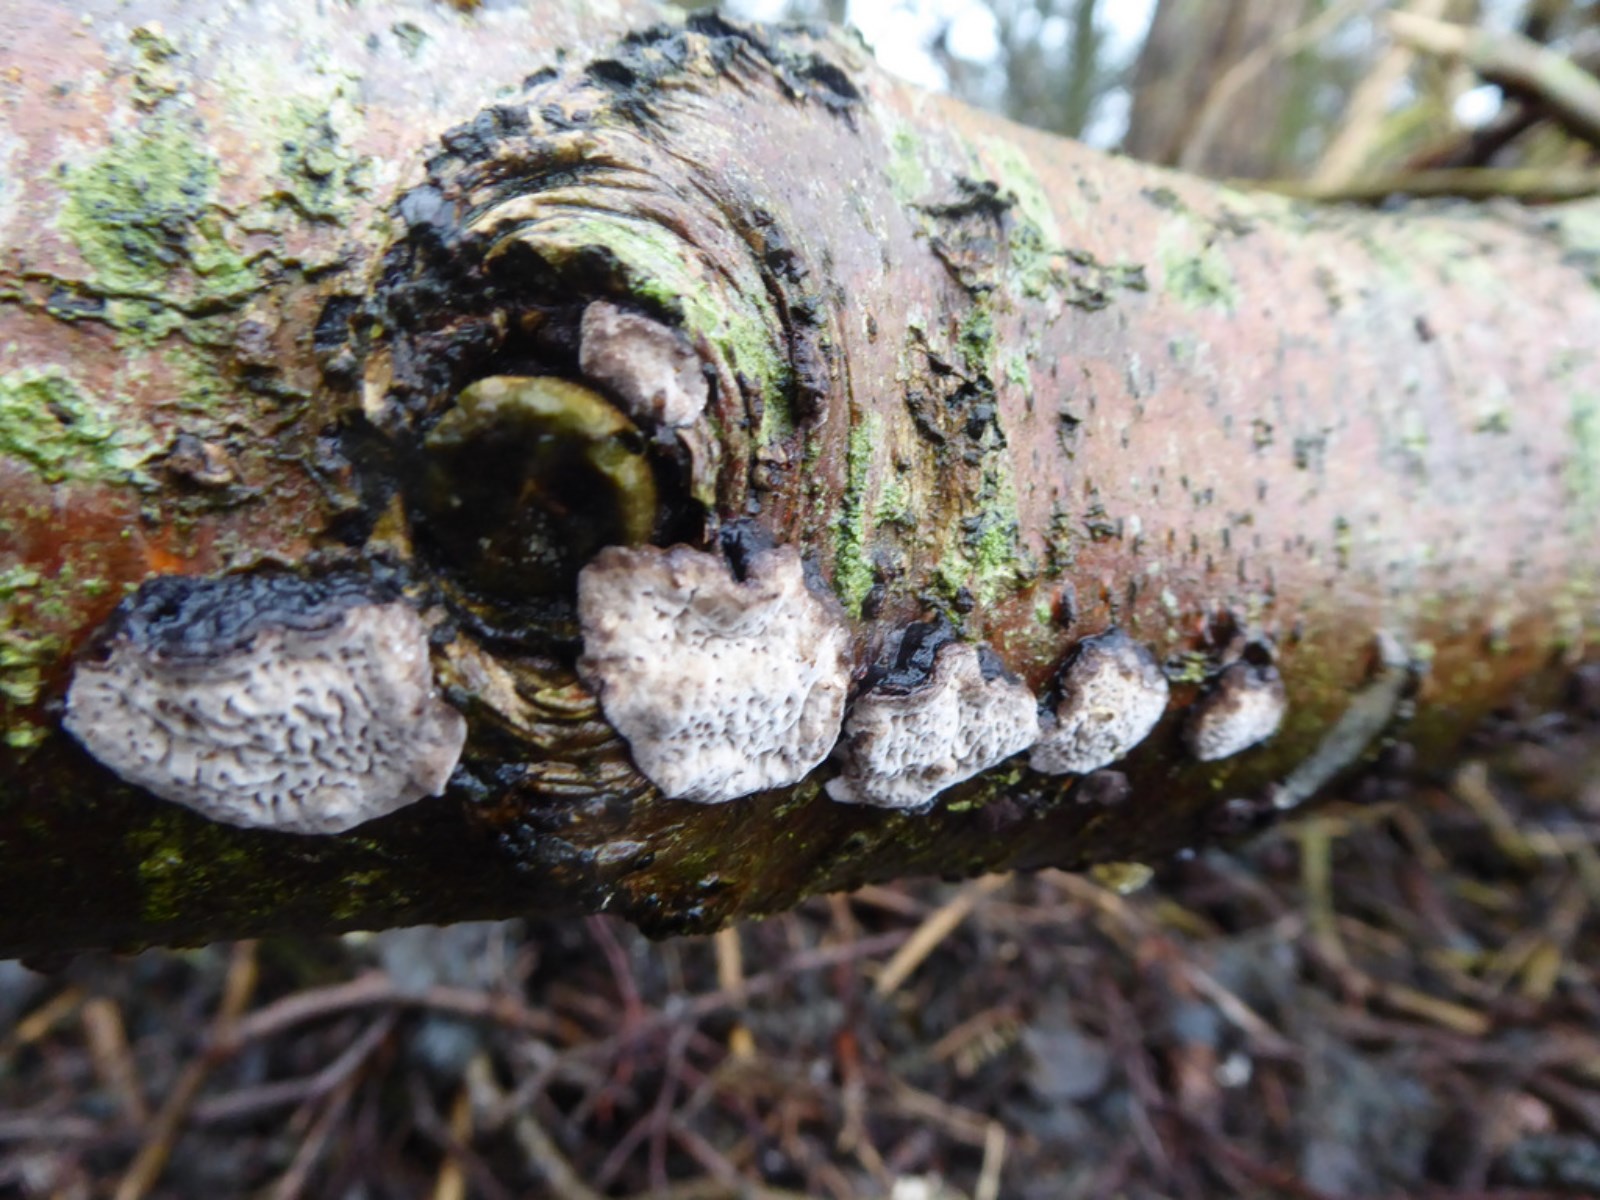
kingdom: Fungi
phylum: Basidiomycota
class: Agaricomycetes
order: Polyporales
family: Polyporaceae
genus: Podofomes
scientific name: Podofomes mollis
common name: blød begporesvamp
